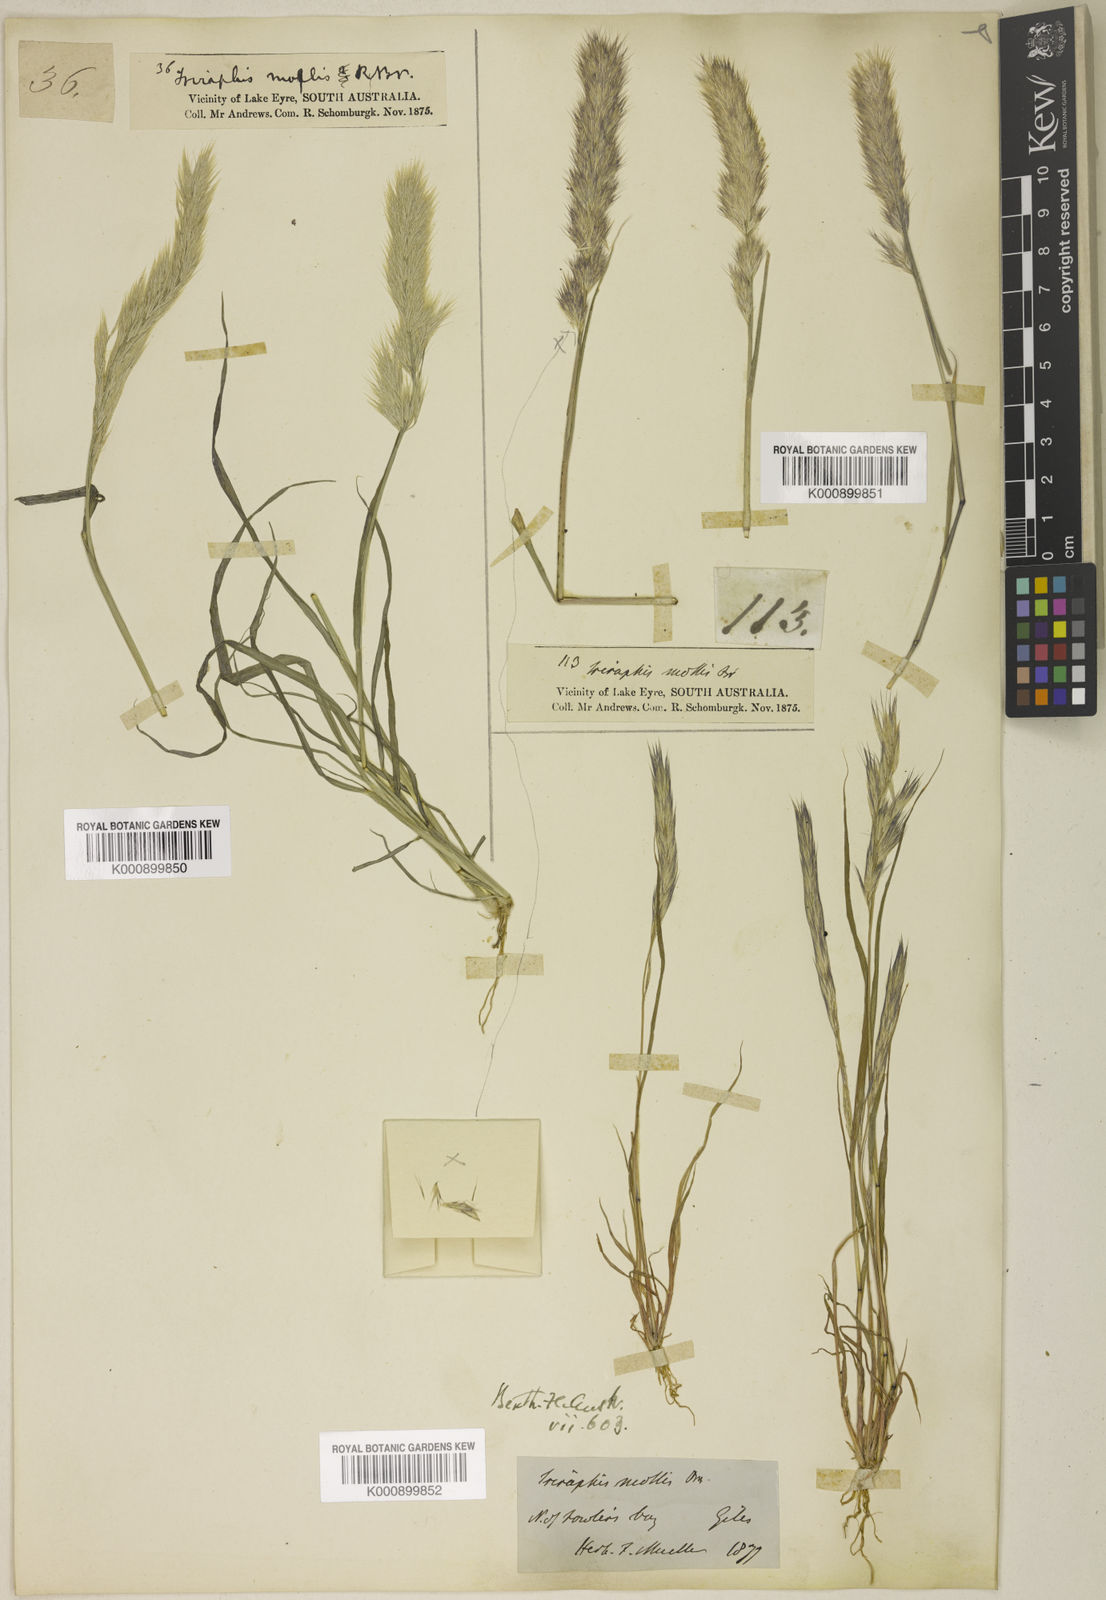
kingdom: Plantae
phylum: Tracheophyta
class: Liliopsida
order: Poales
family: Poaceae
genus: Triraphis
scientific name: Triraphis mollis
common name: Purple needlegrass
